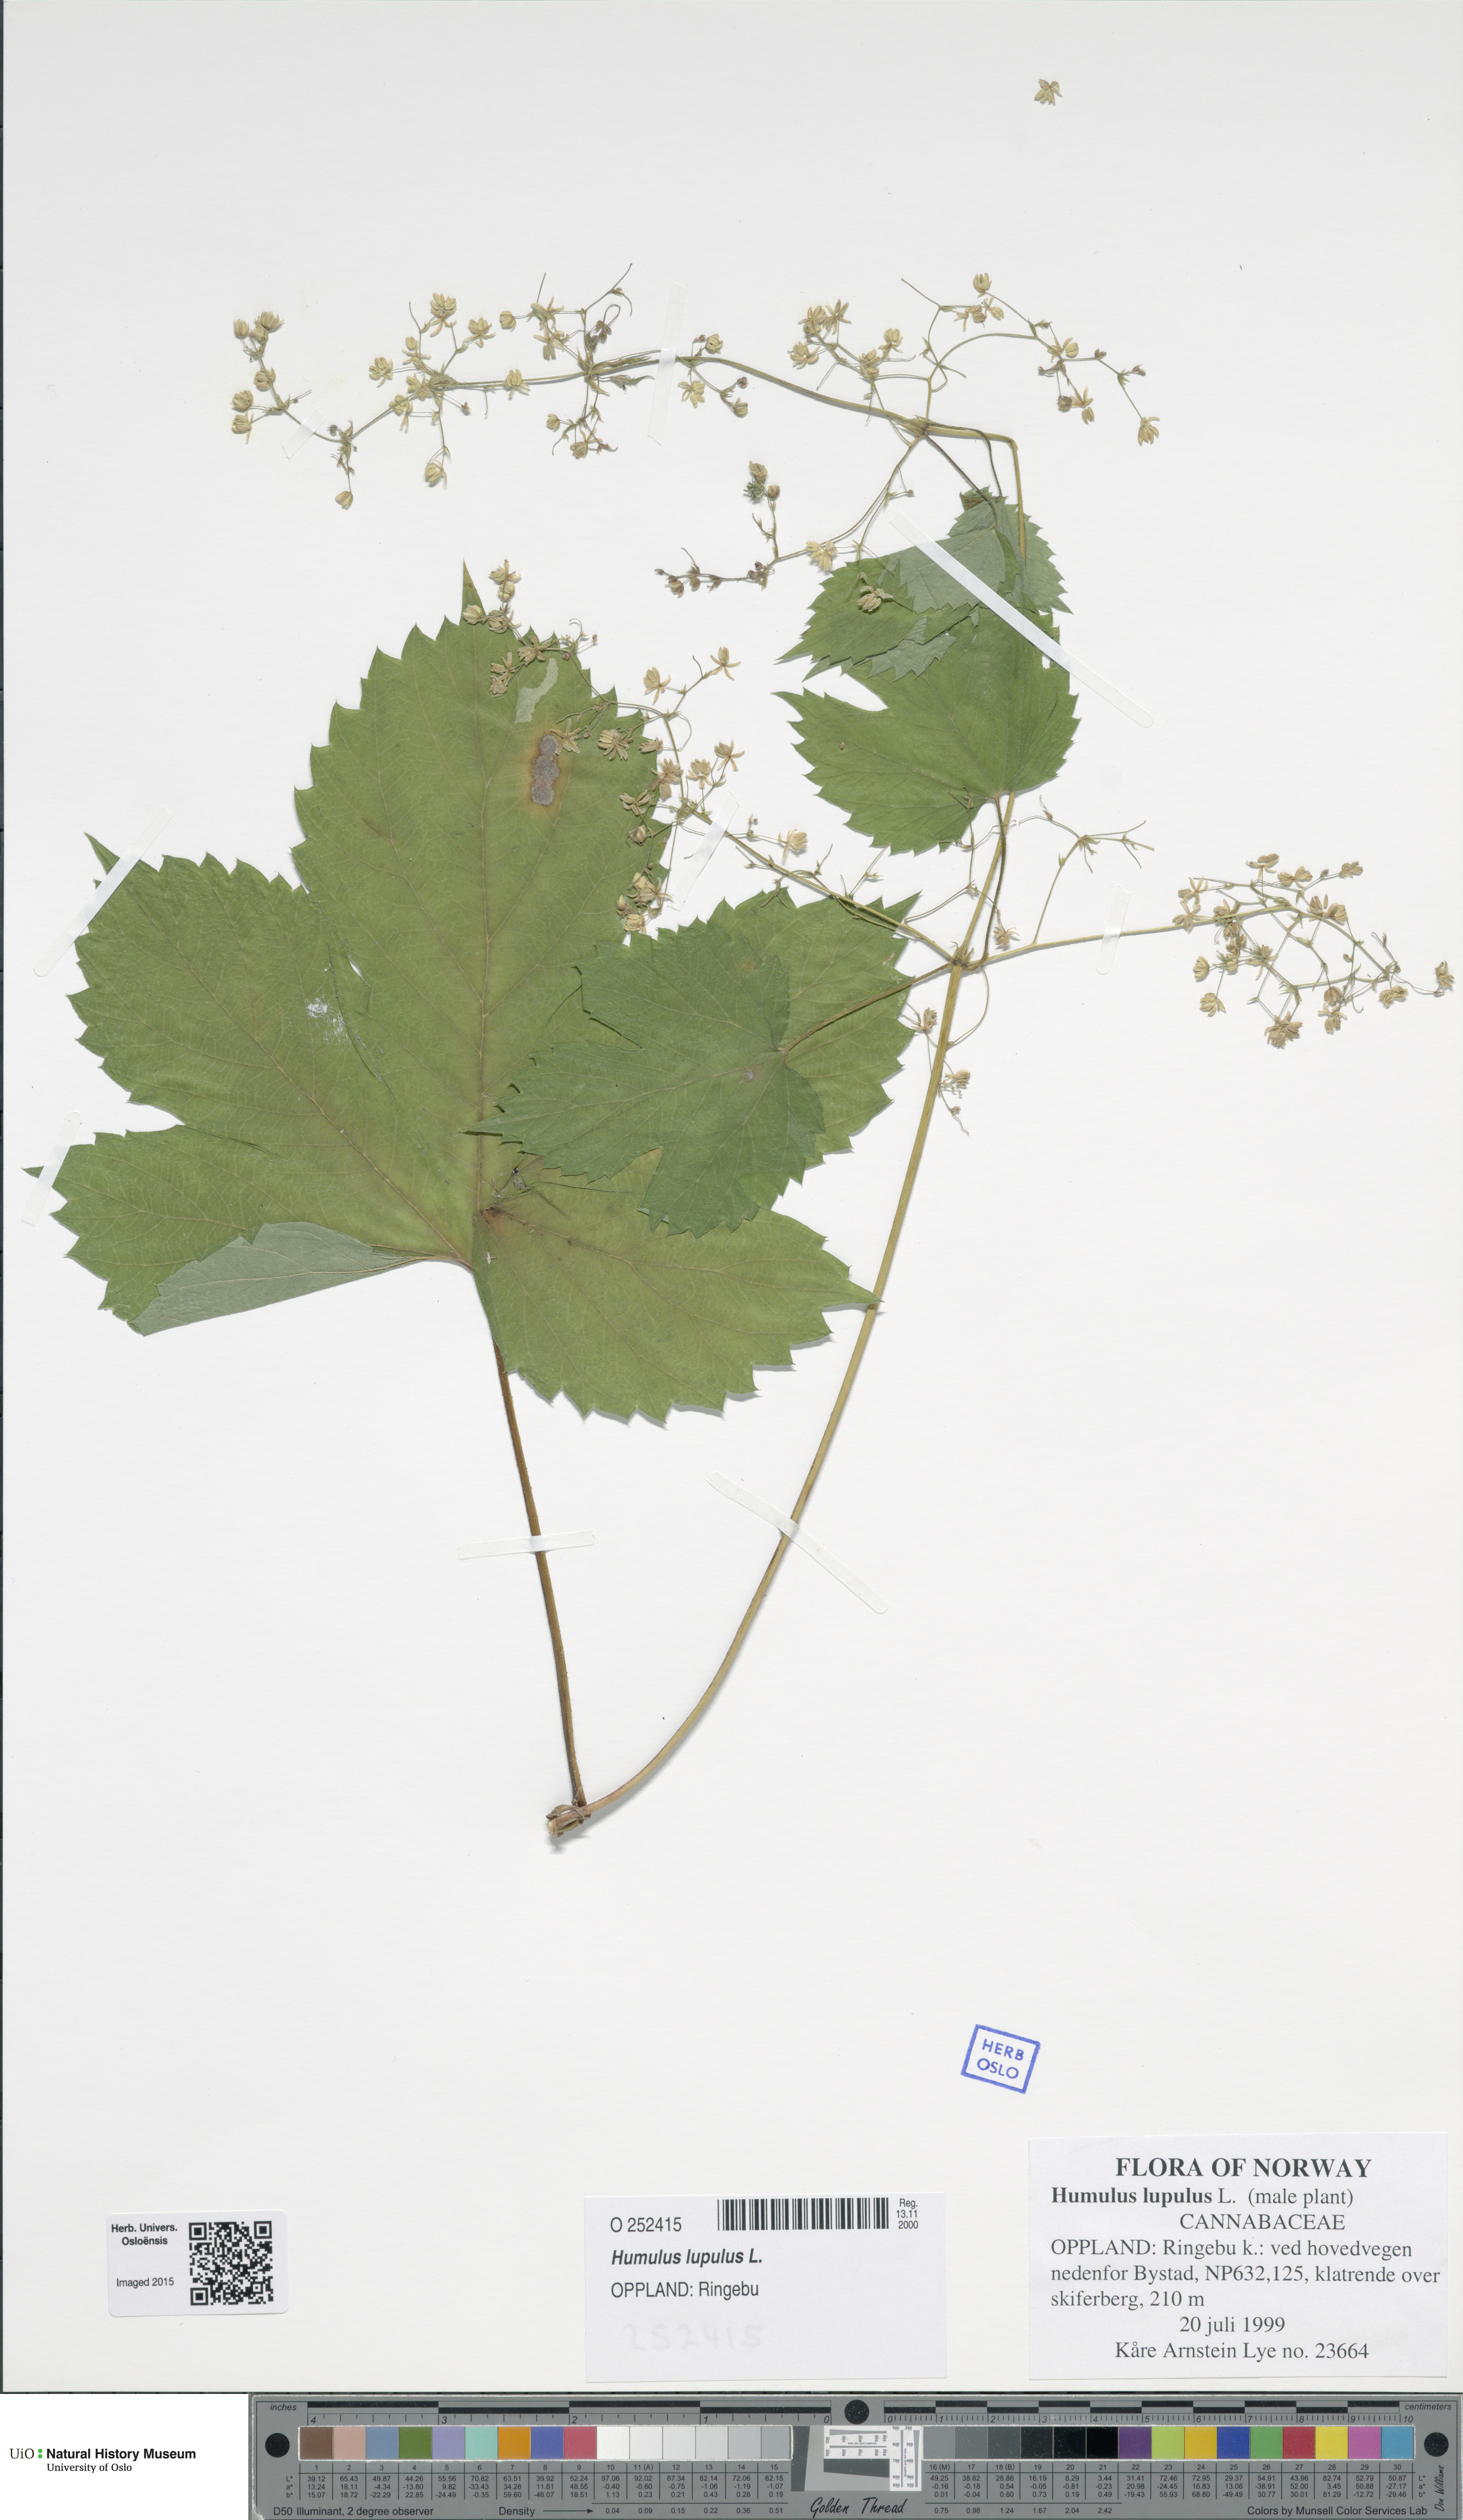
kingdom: Plantae
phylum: Tracheophyta
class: Magnoliopsida
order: Rosales
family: Cannabaceae
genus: Humulus
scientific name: Humulus lupulus
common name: Hop
